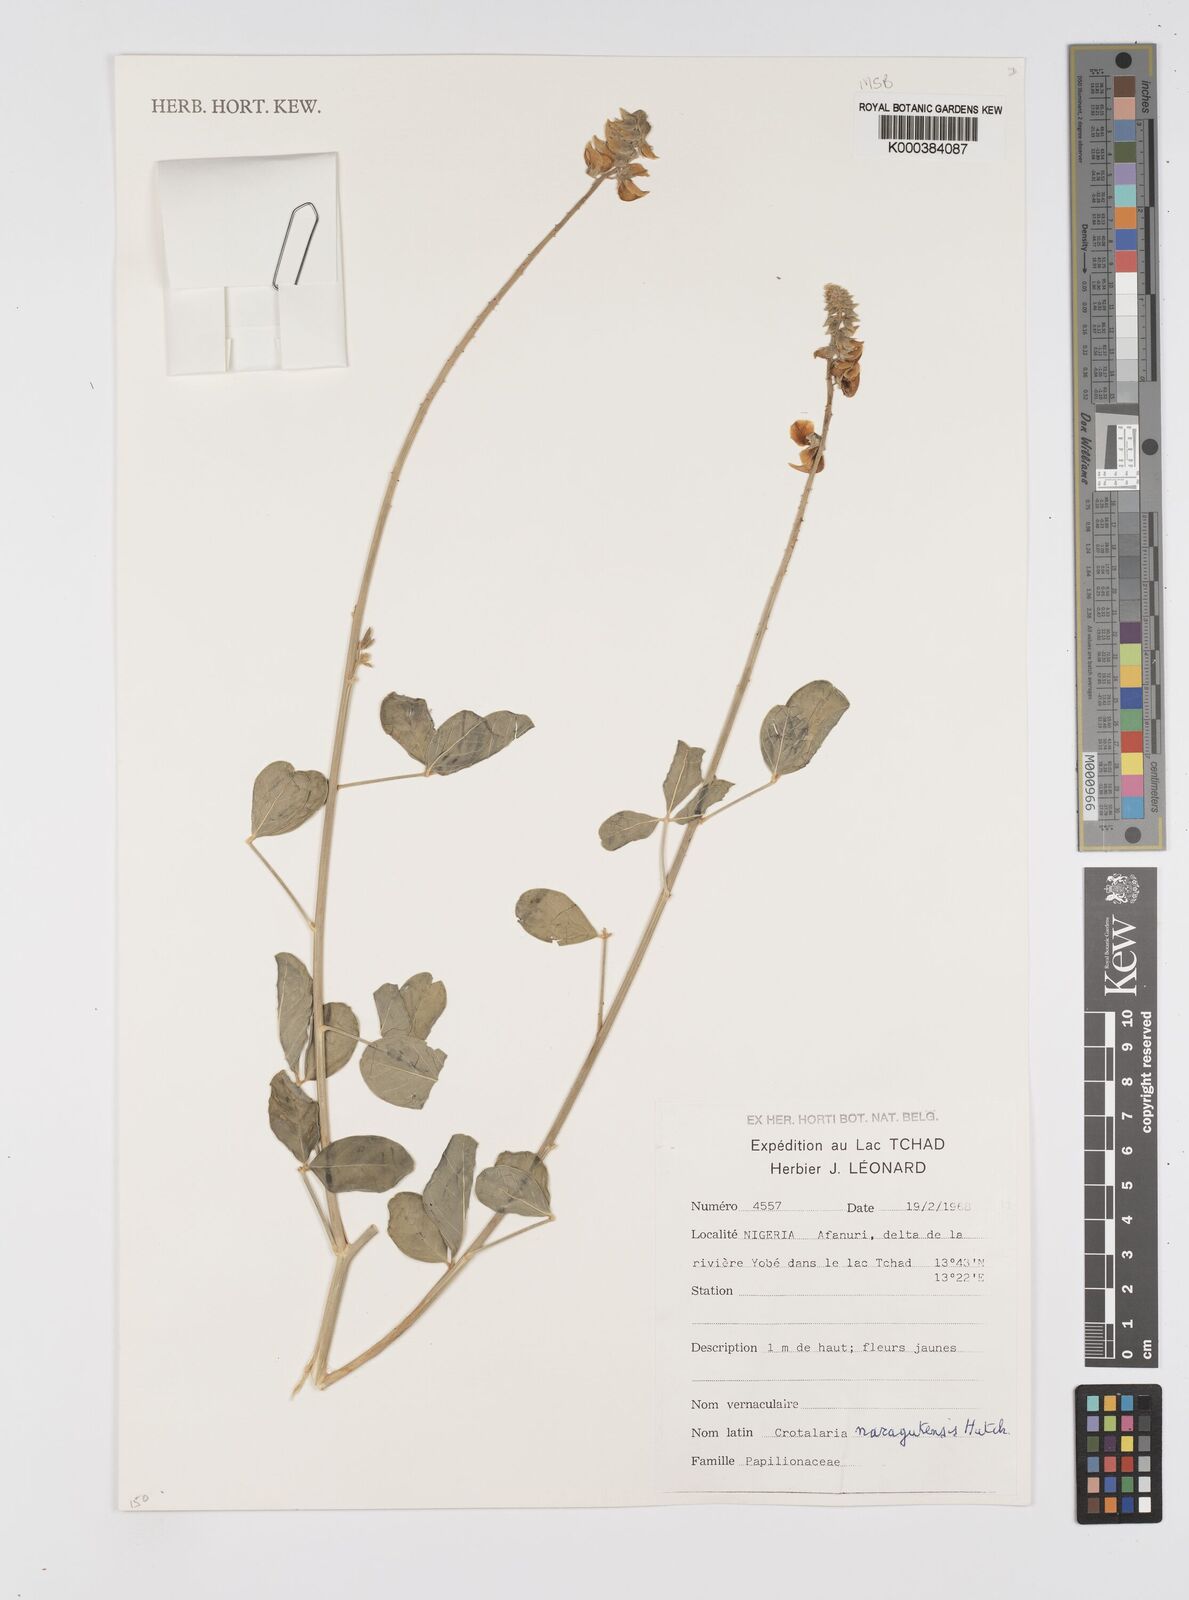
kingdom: Plantae
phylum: Tracheophyta
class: Magnoliopsida
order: Fabales
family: Fabaceae
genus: Crotalaria
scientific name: Crotalaria naragutensis
